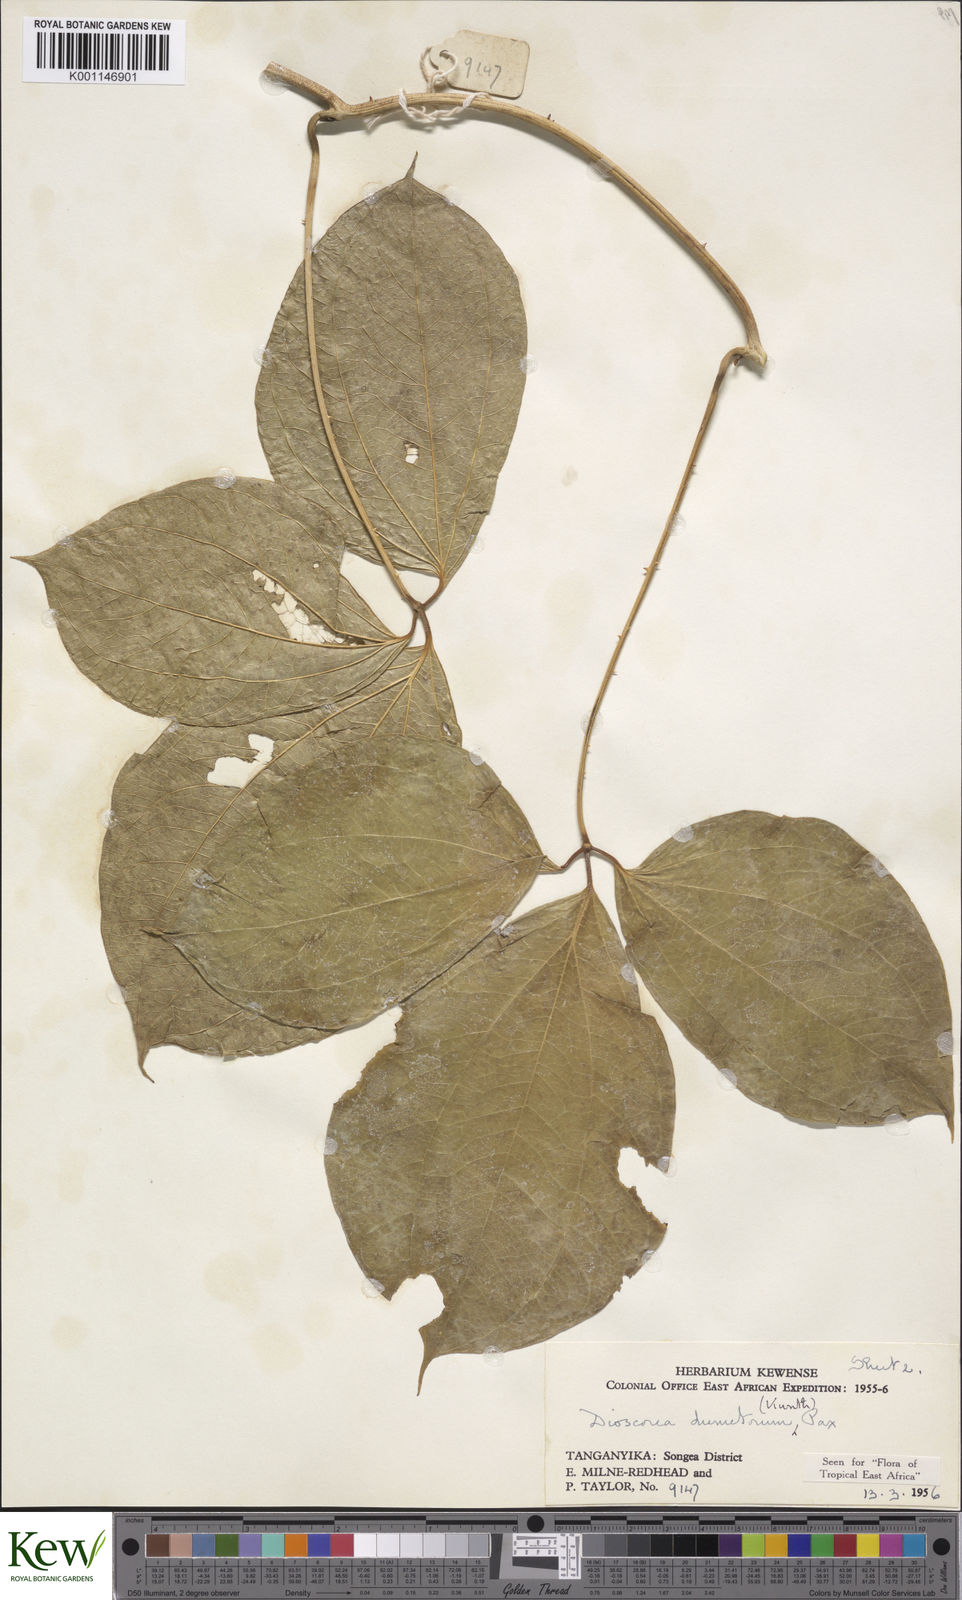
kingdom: Plantae
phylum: Tracheophyta
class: Liliopsida
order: Dioscoreales
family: Dioscoreaceae
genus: Dioscorea
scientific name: Dioscorea dumetorum
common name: African bitter yam
